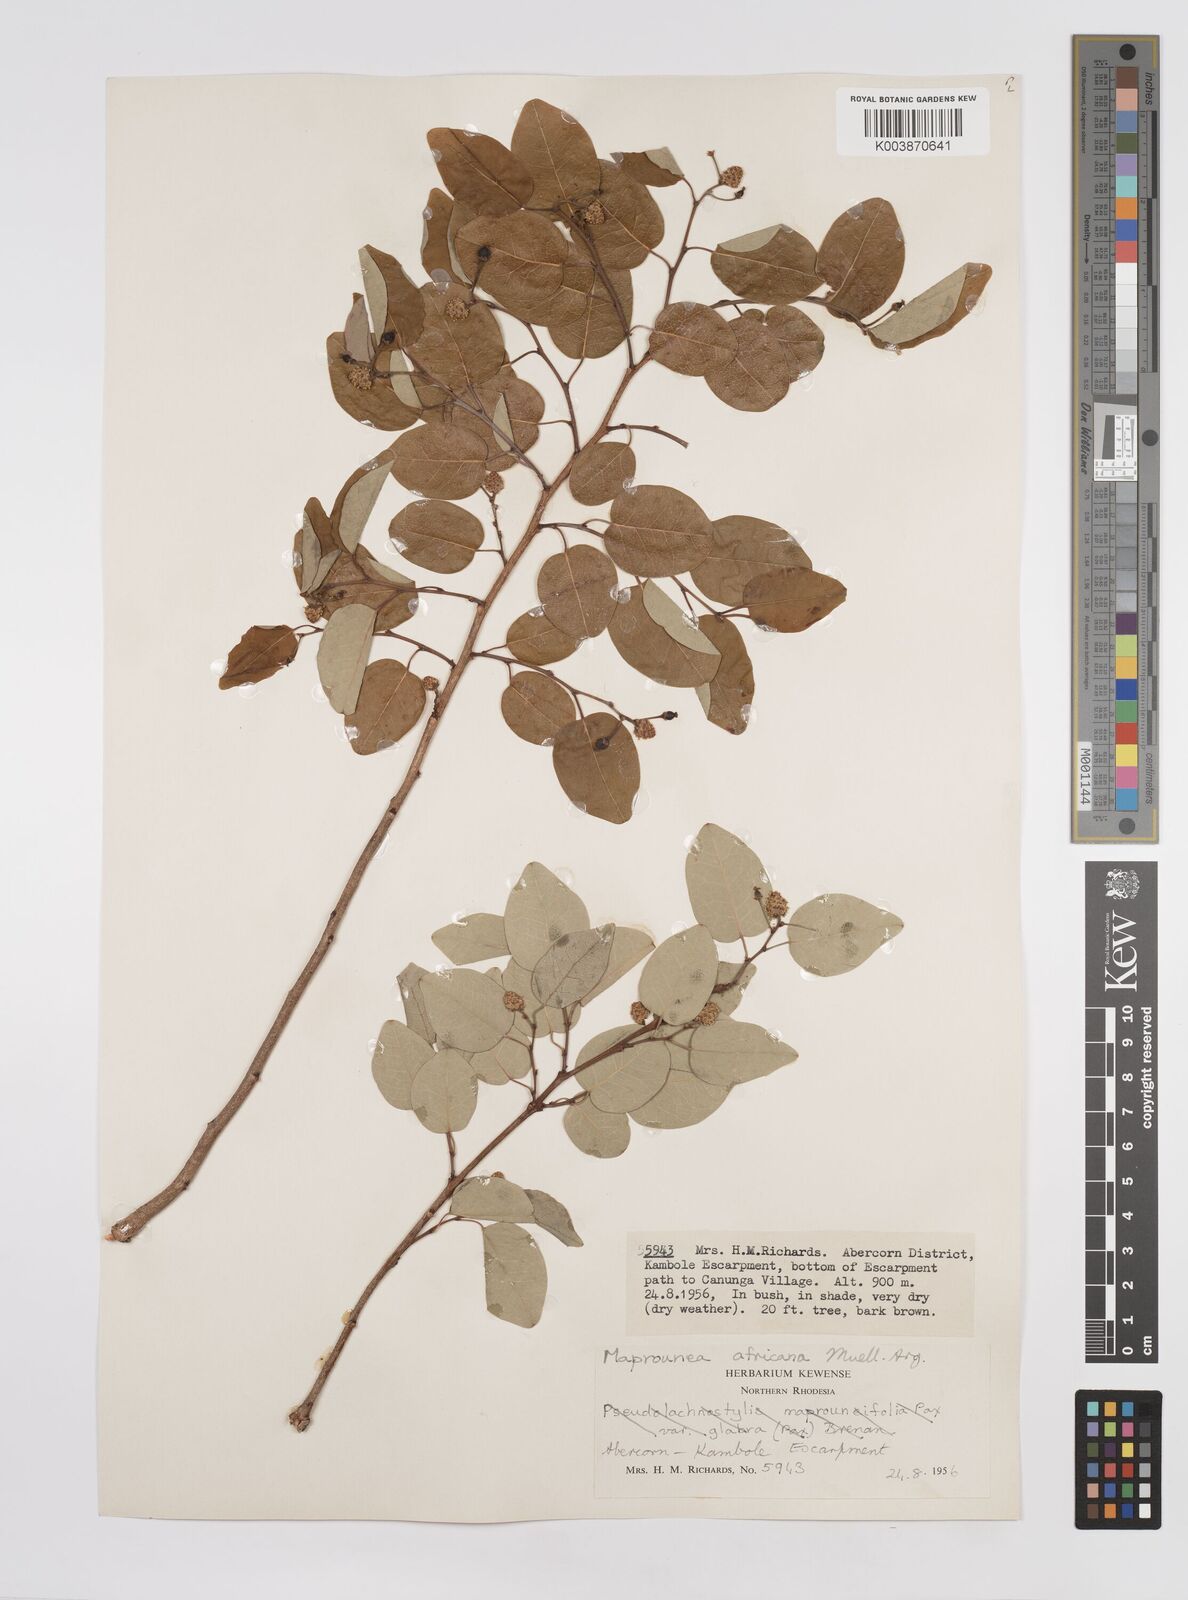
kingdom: Plantae
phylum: Tracheophyta
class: Magnoliopsida
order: Malpighiales
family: Euphorbiaceae
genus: Maprounea
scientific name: Maprounea africana
